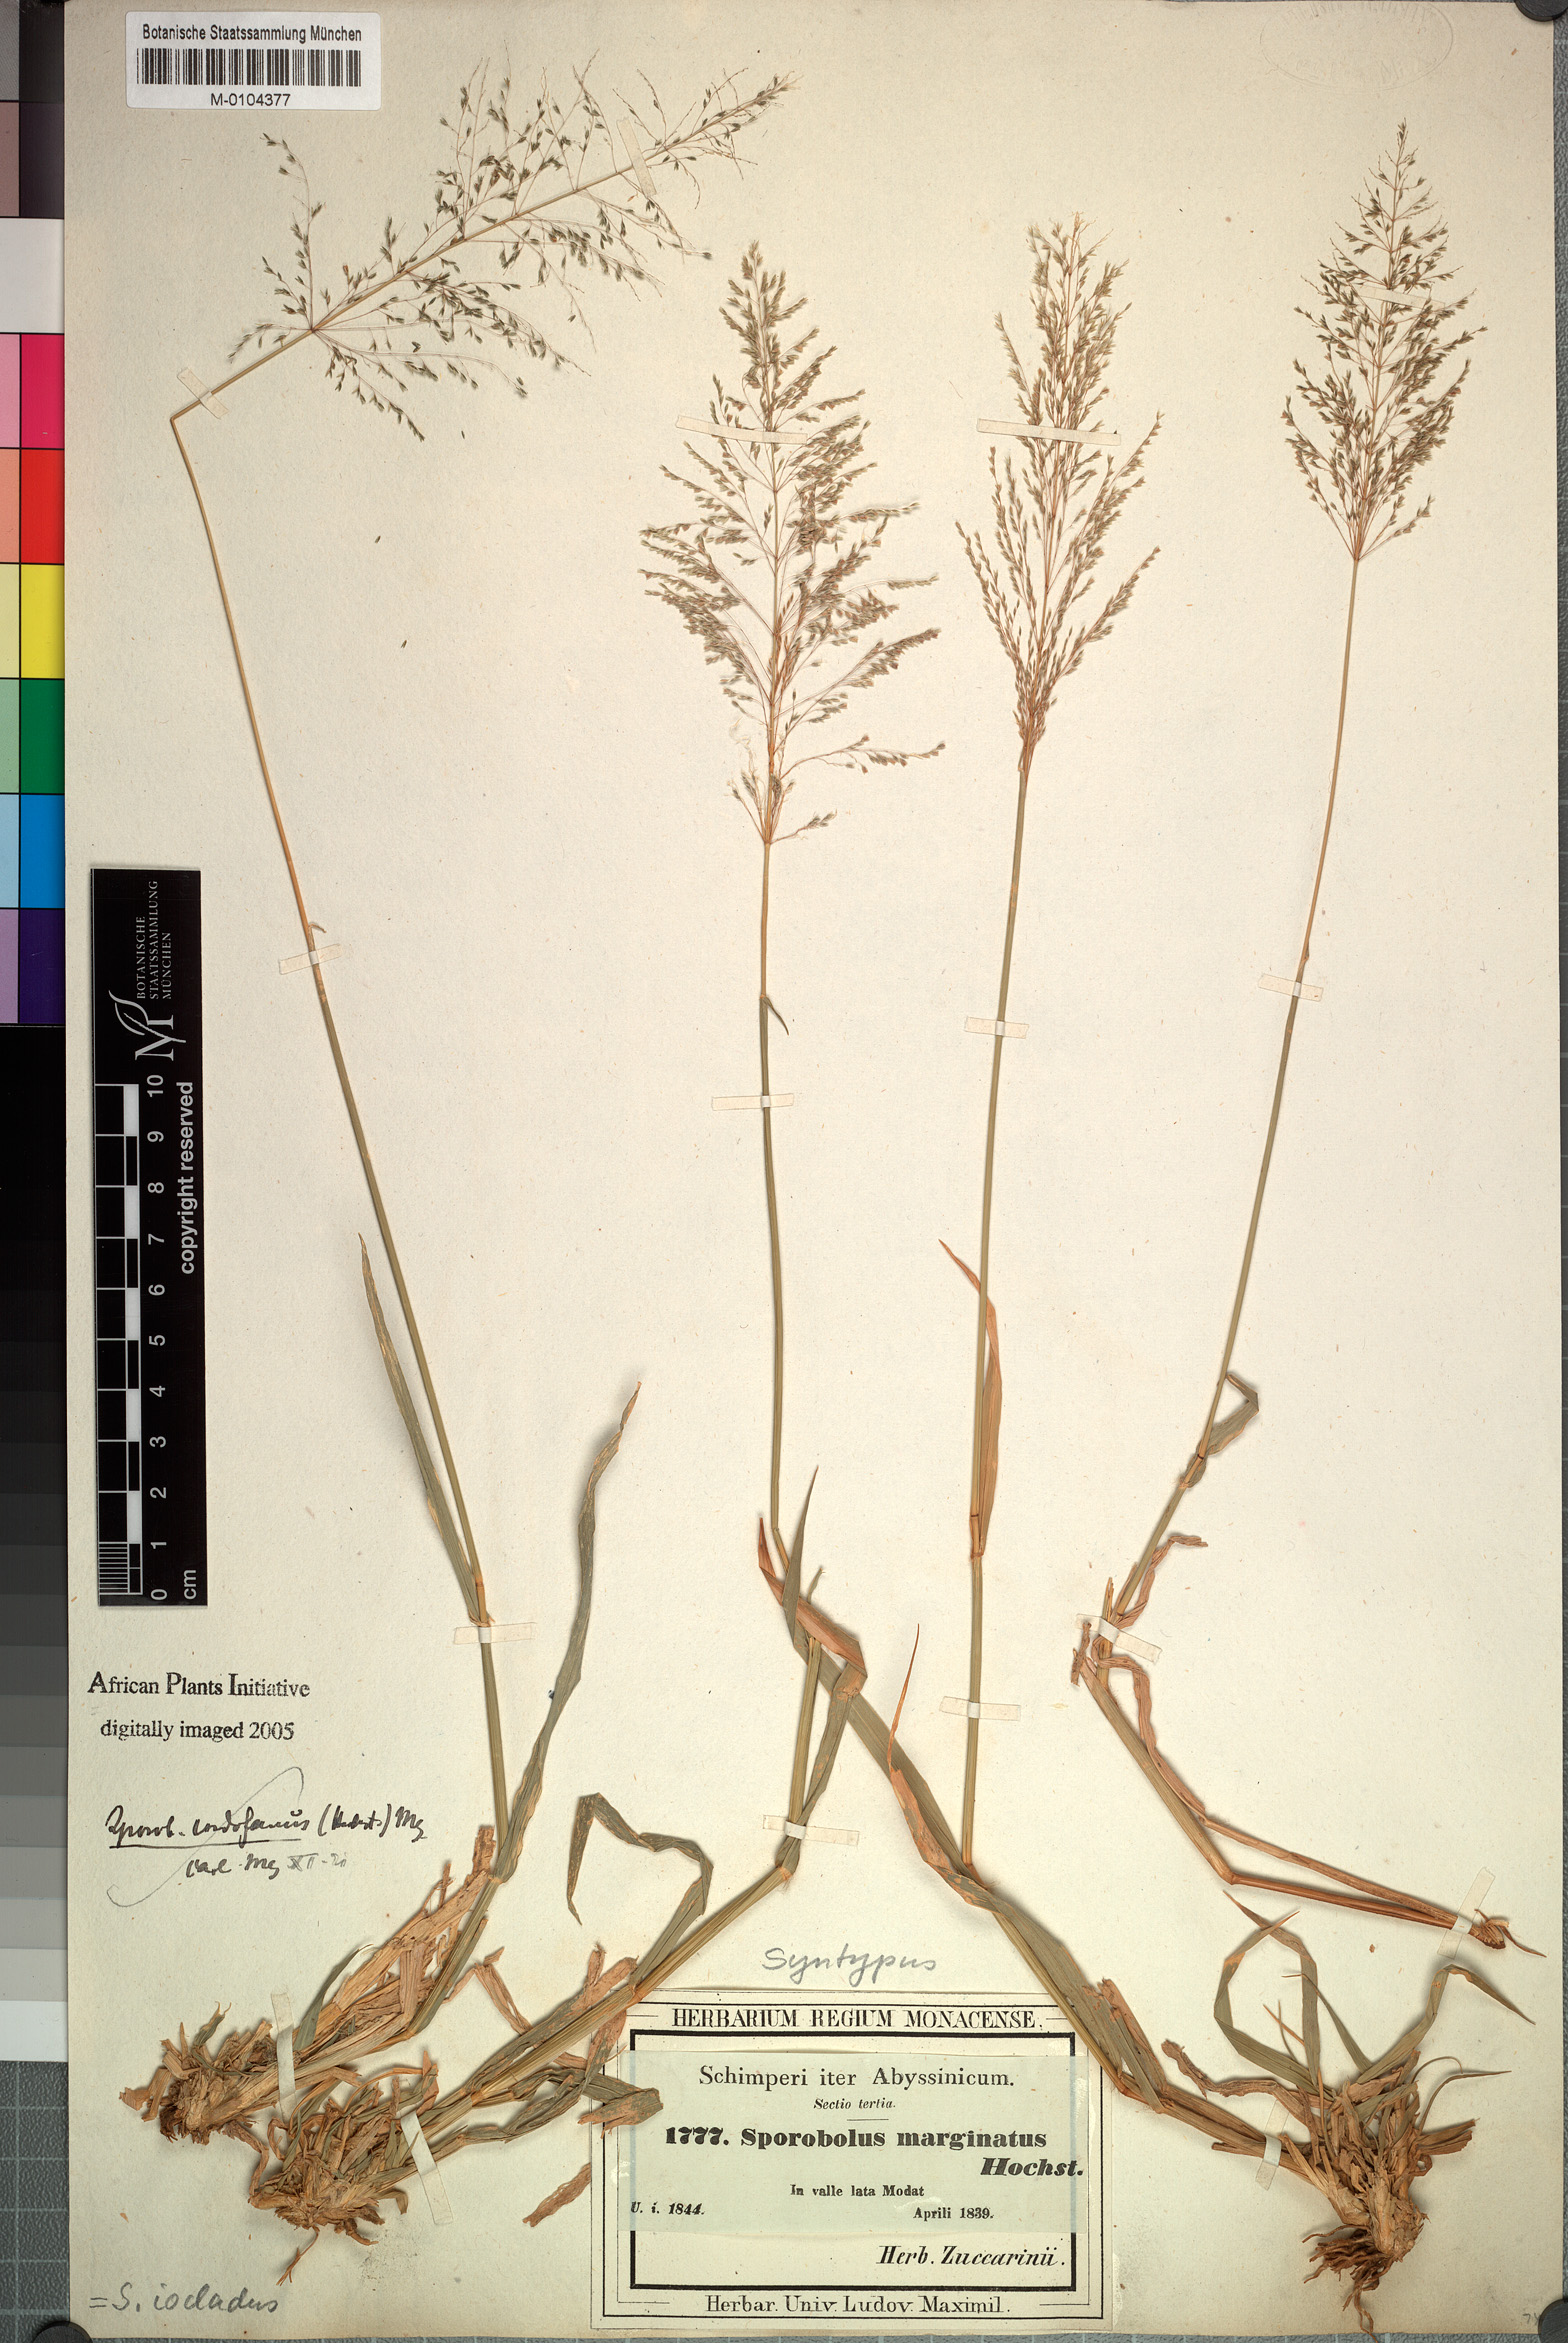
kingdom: Plantae
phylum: Tracheophyta
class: Liliopsida
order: Poales
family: Poaceae
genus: Sporobolus
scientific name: Sporobolus ioclados
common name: Pan dropseed
